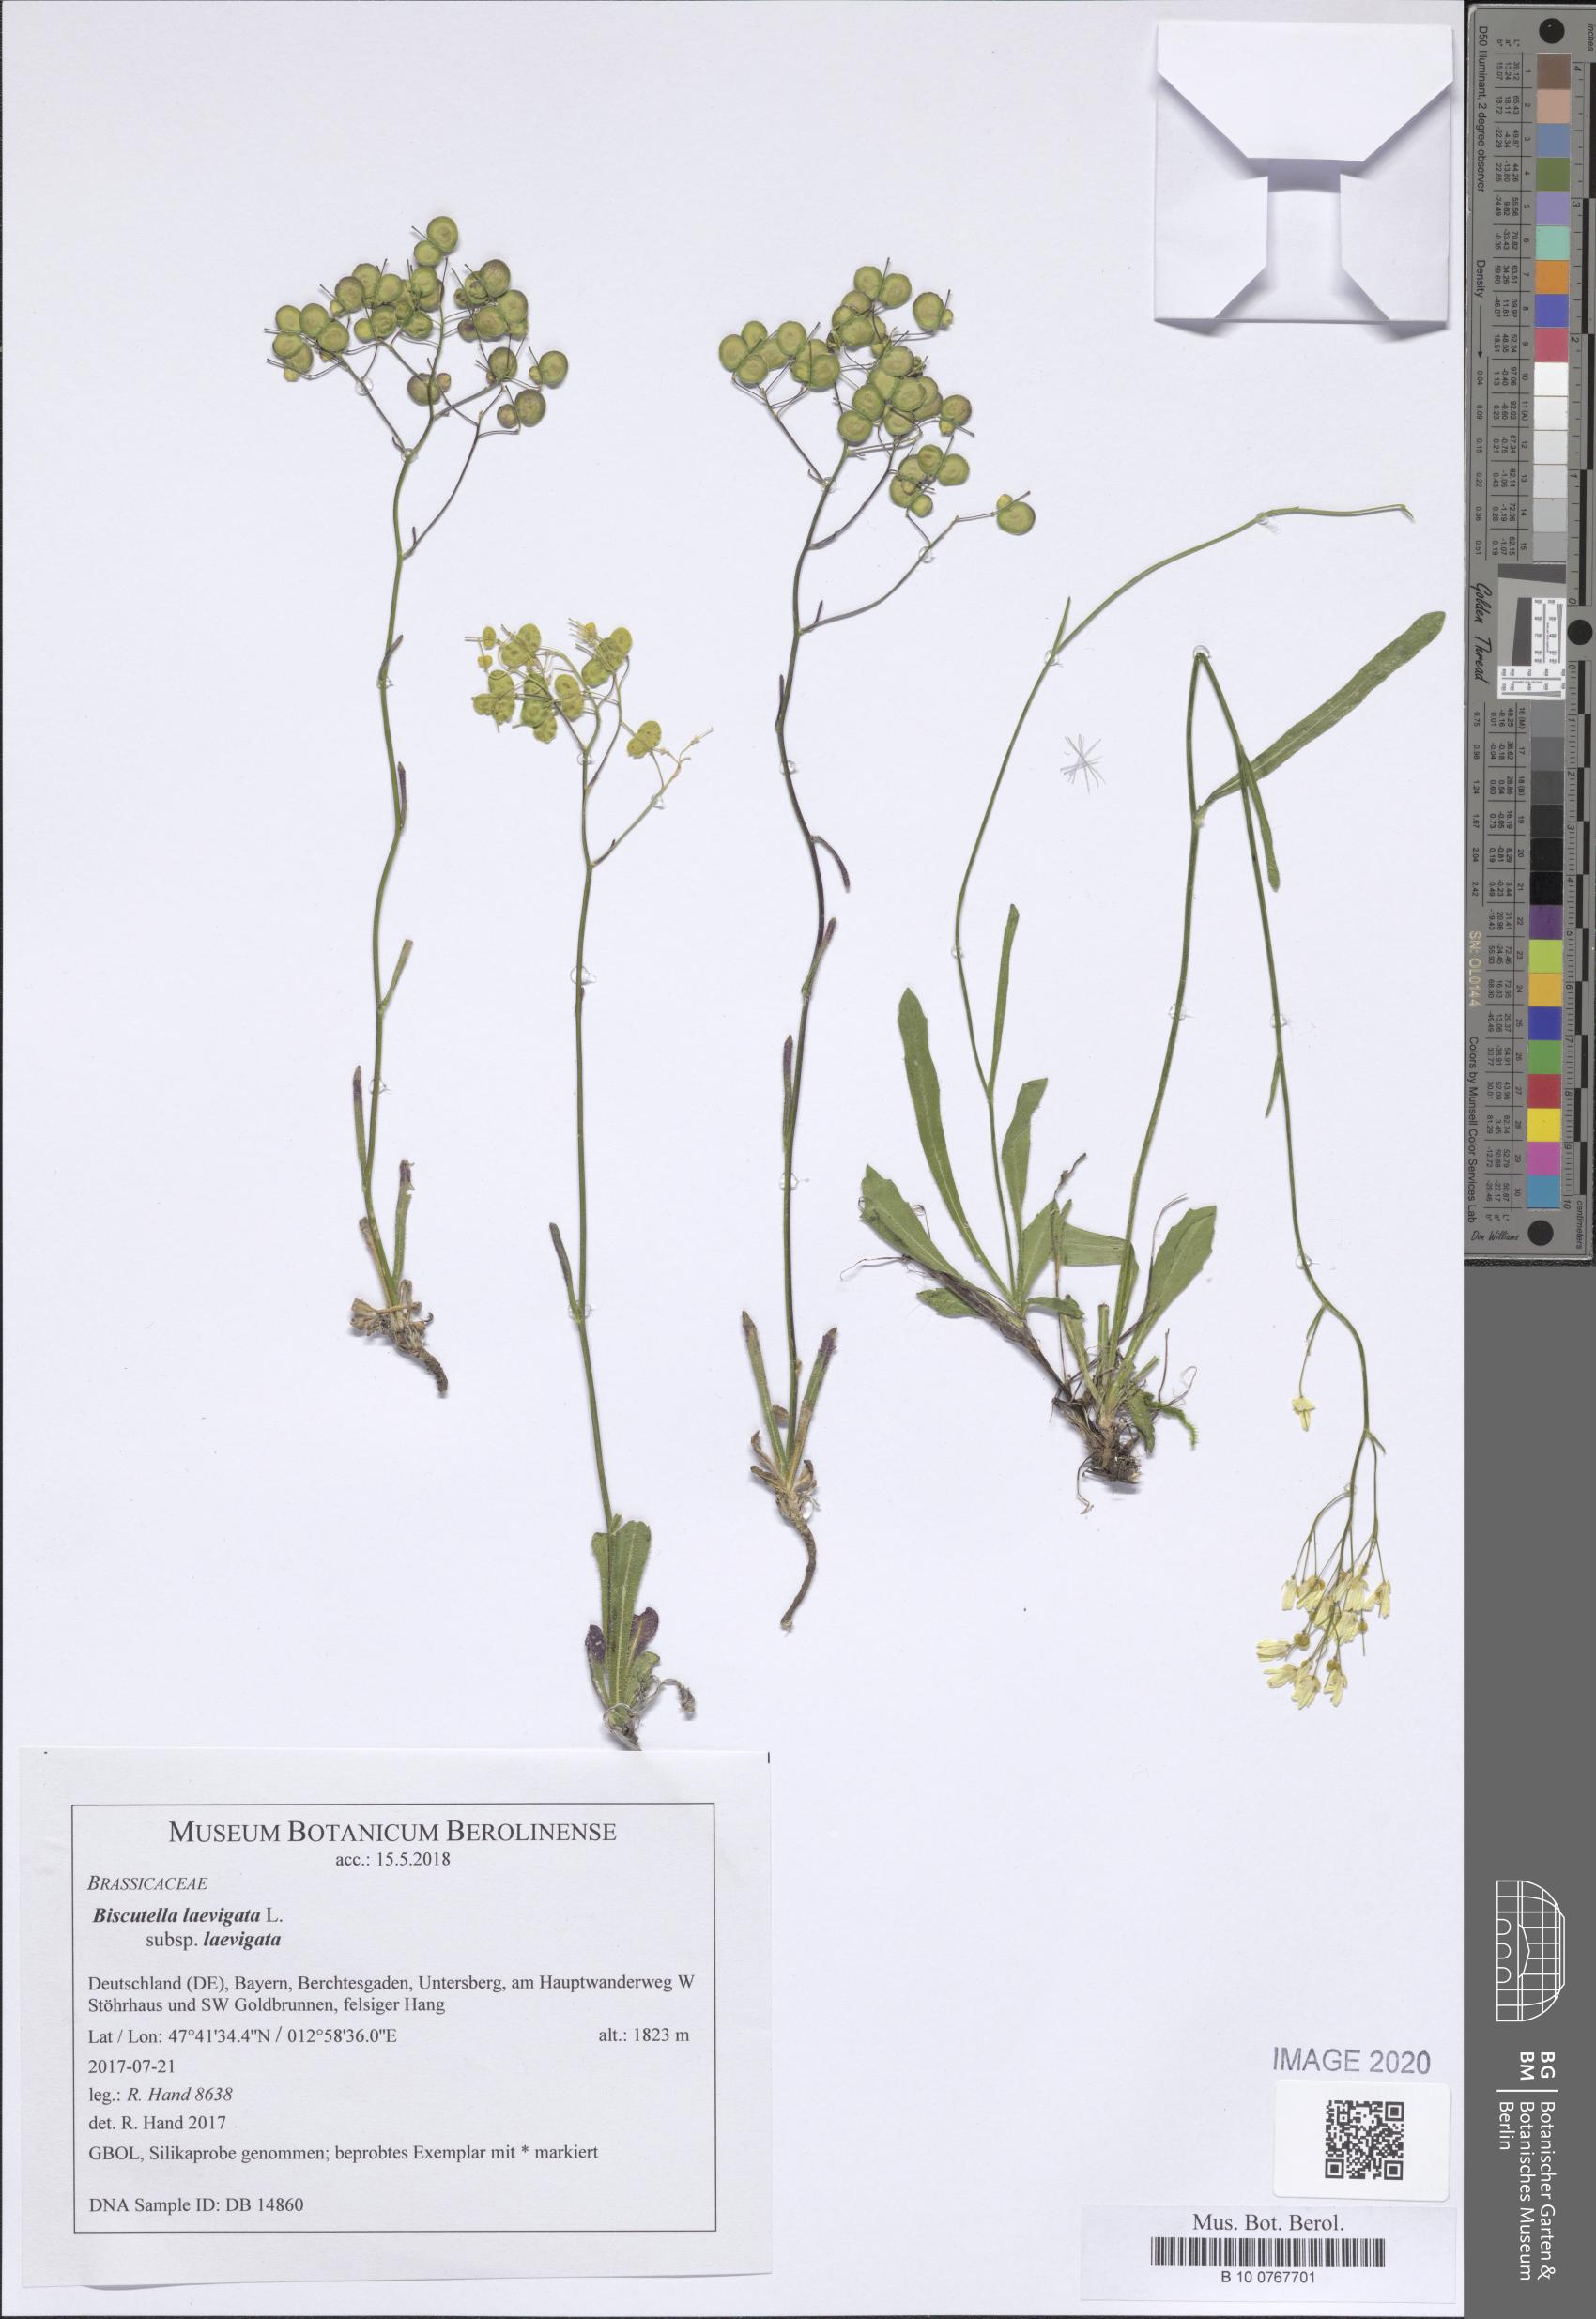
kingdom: Plantae
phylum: Tracheophyta
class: Magnoliopsida
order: Brassicales
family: Brassicaceae
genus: Biscutella
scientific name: Biscutella laevigata
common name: Buckler mustard
